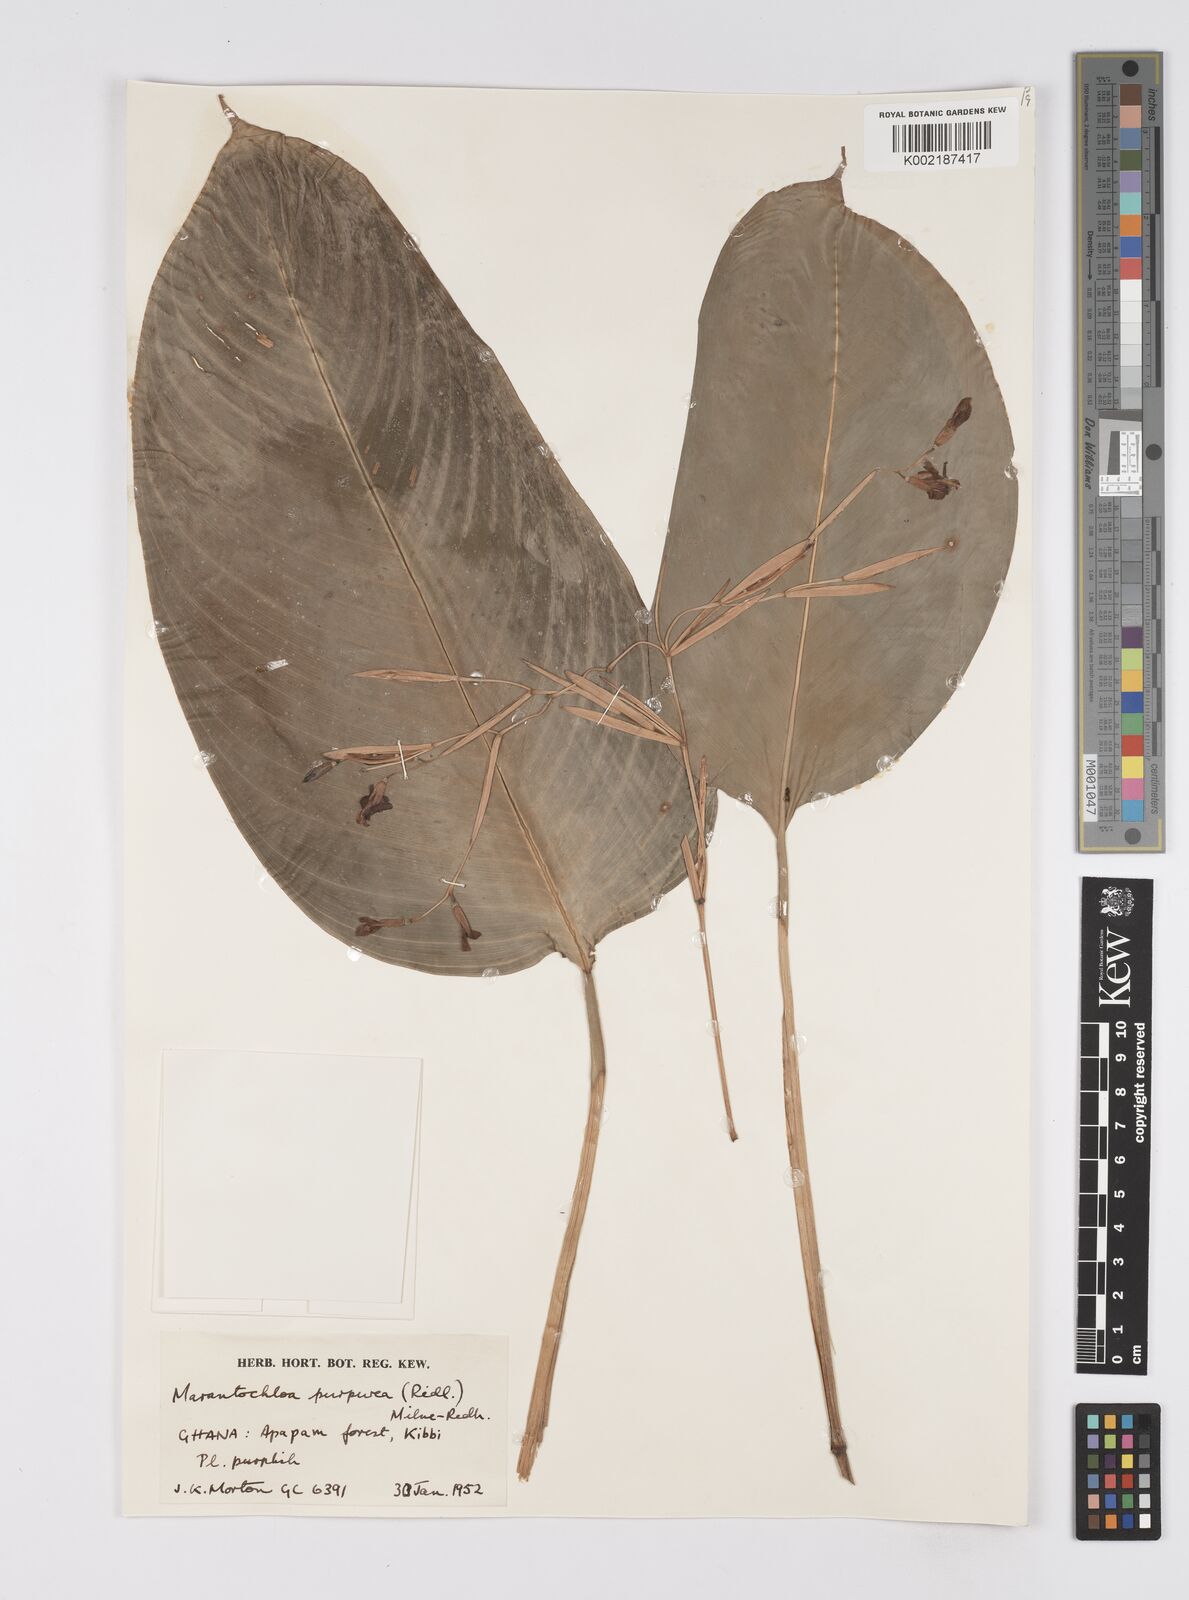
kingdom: Plantae
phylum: Tracheophyta
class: Liliopsida
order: Zingiberales
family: Marantaceae
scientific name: Marantaceae
